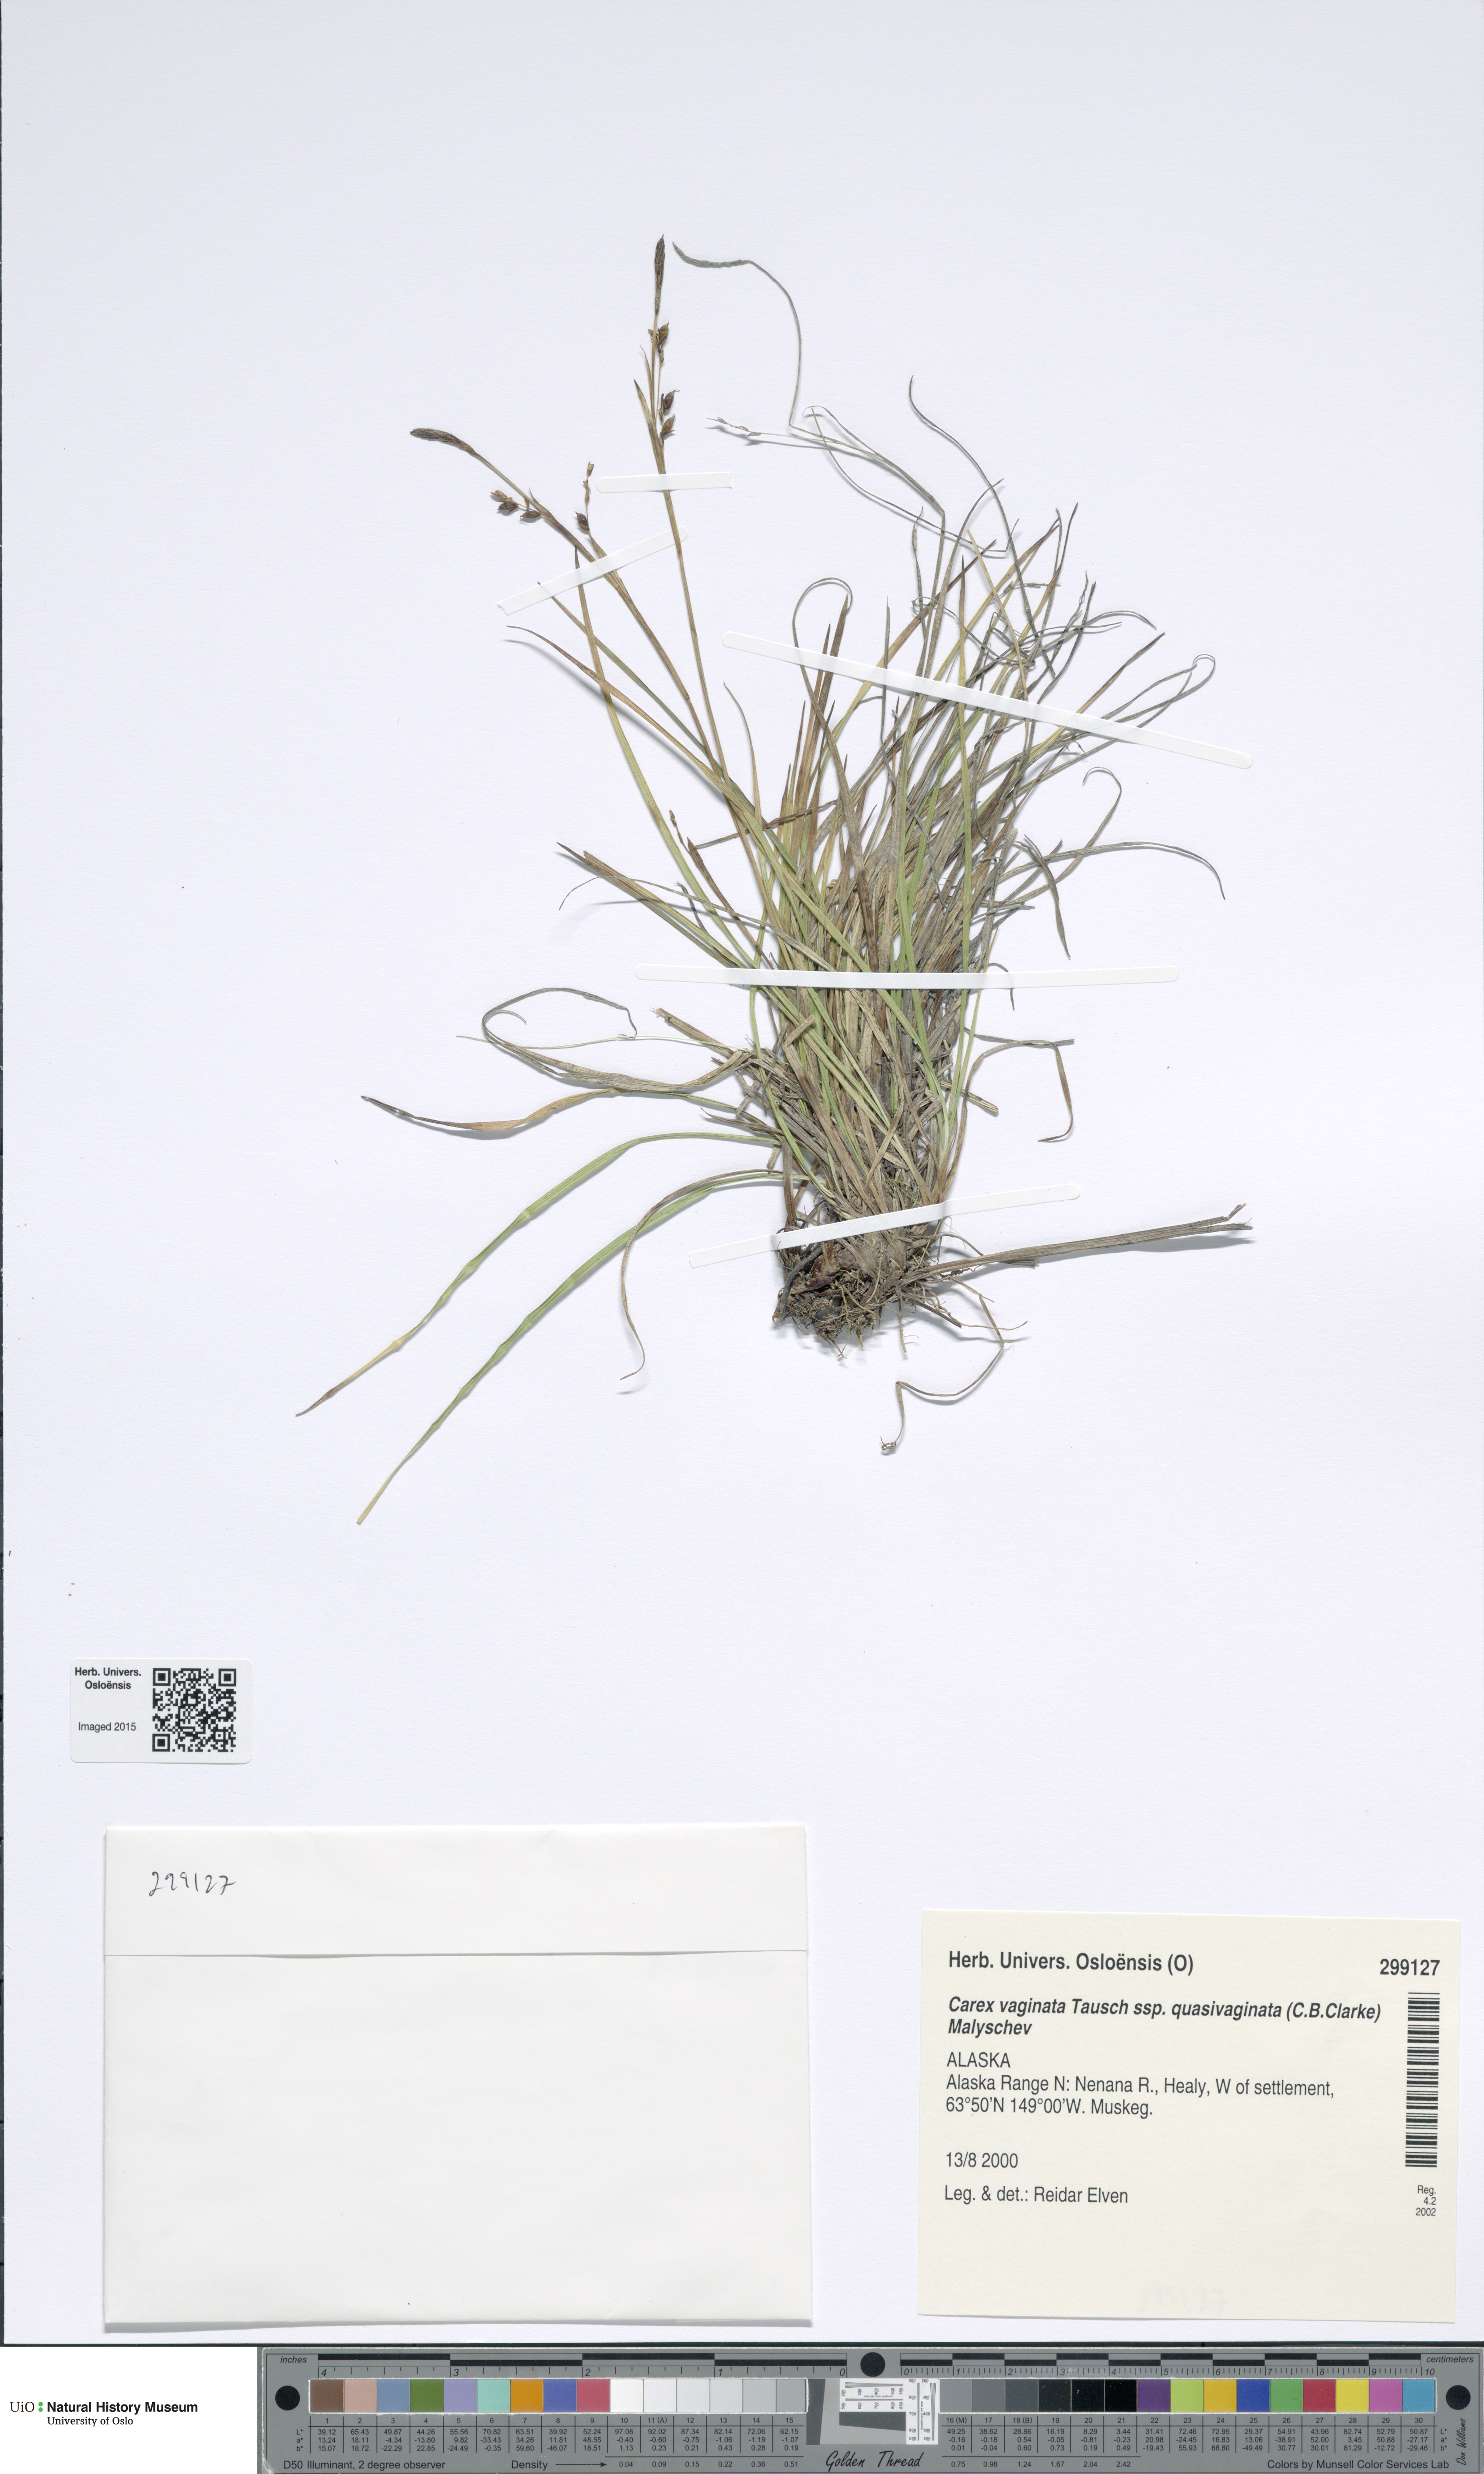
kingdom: Plantae
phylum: Tracheophyta
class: Liliopsida
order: Poales
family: Cyperaceae
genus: Carex
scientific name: Carex vaginata
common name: Sheathed sedge
